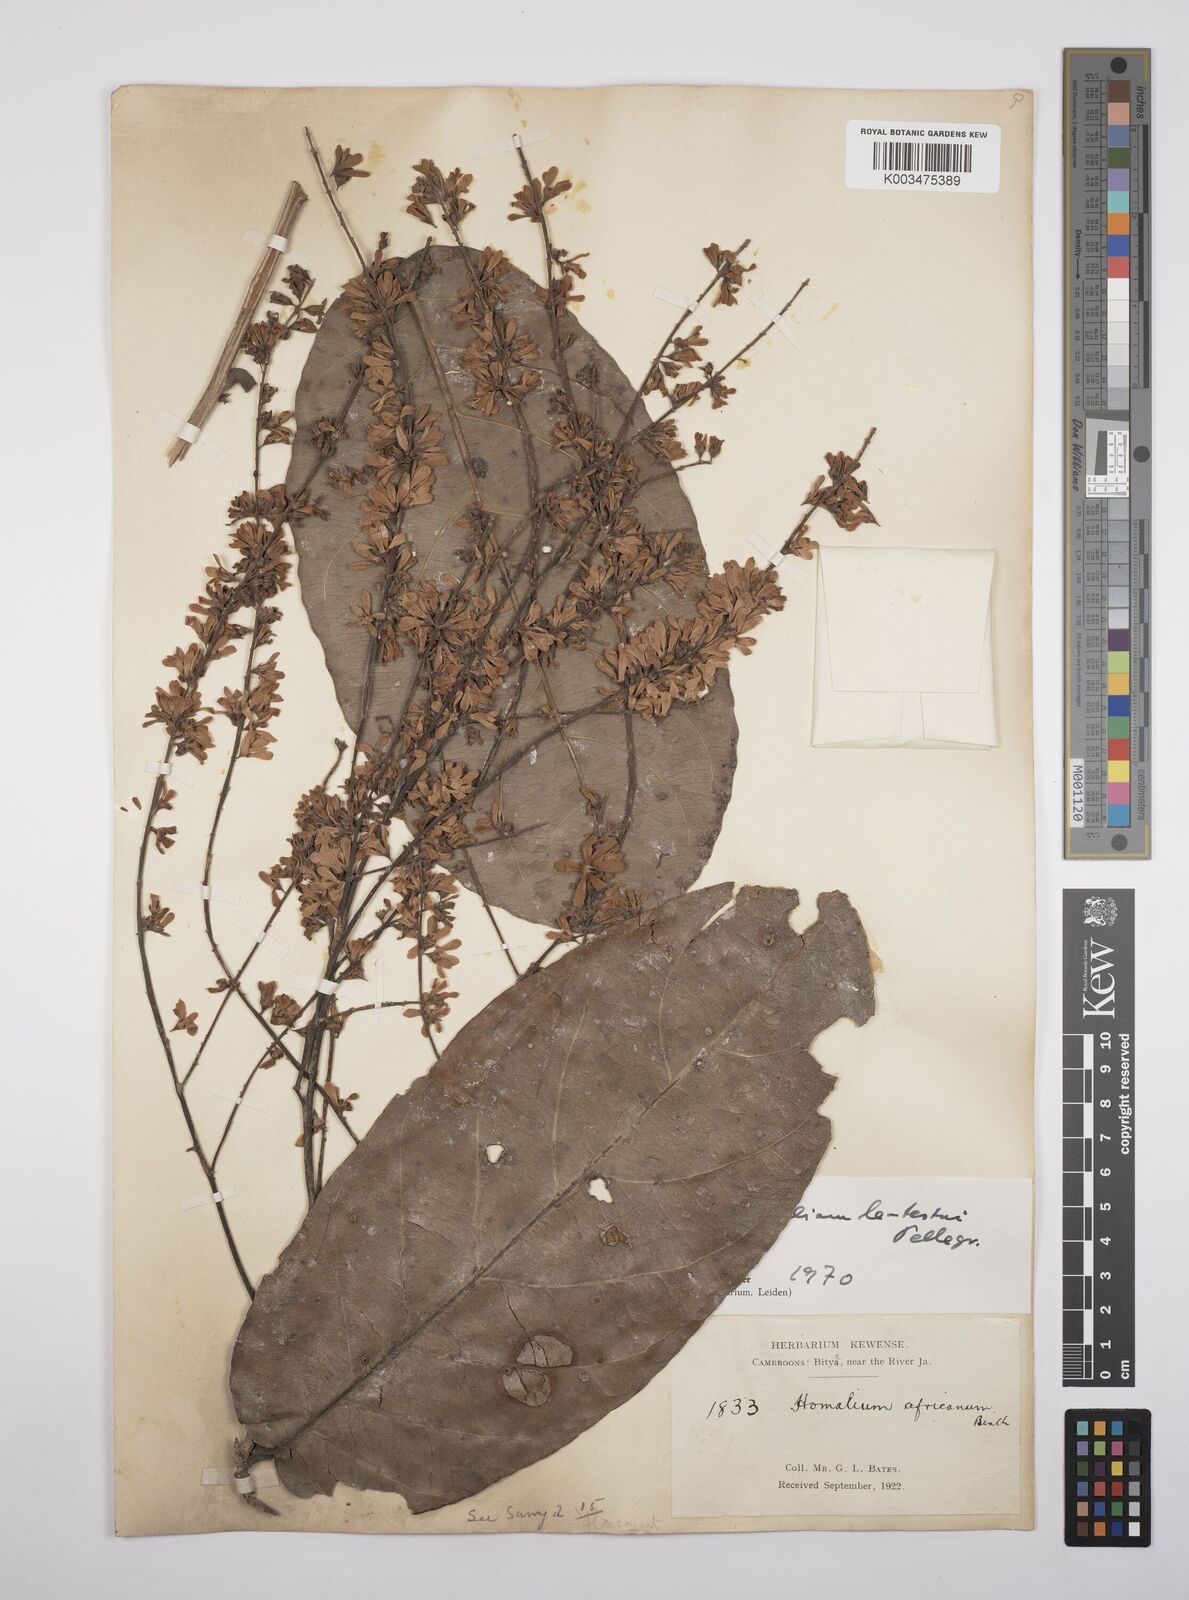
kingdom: Plantae
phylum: Tracheophyta
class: Magnoliopsida
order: Malpighiales
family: Salicaceae
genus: Homalium
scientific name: Homalium letestui
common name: African homalium
